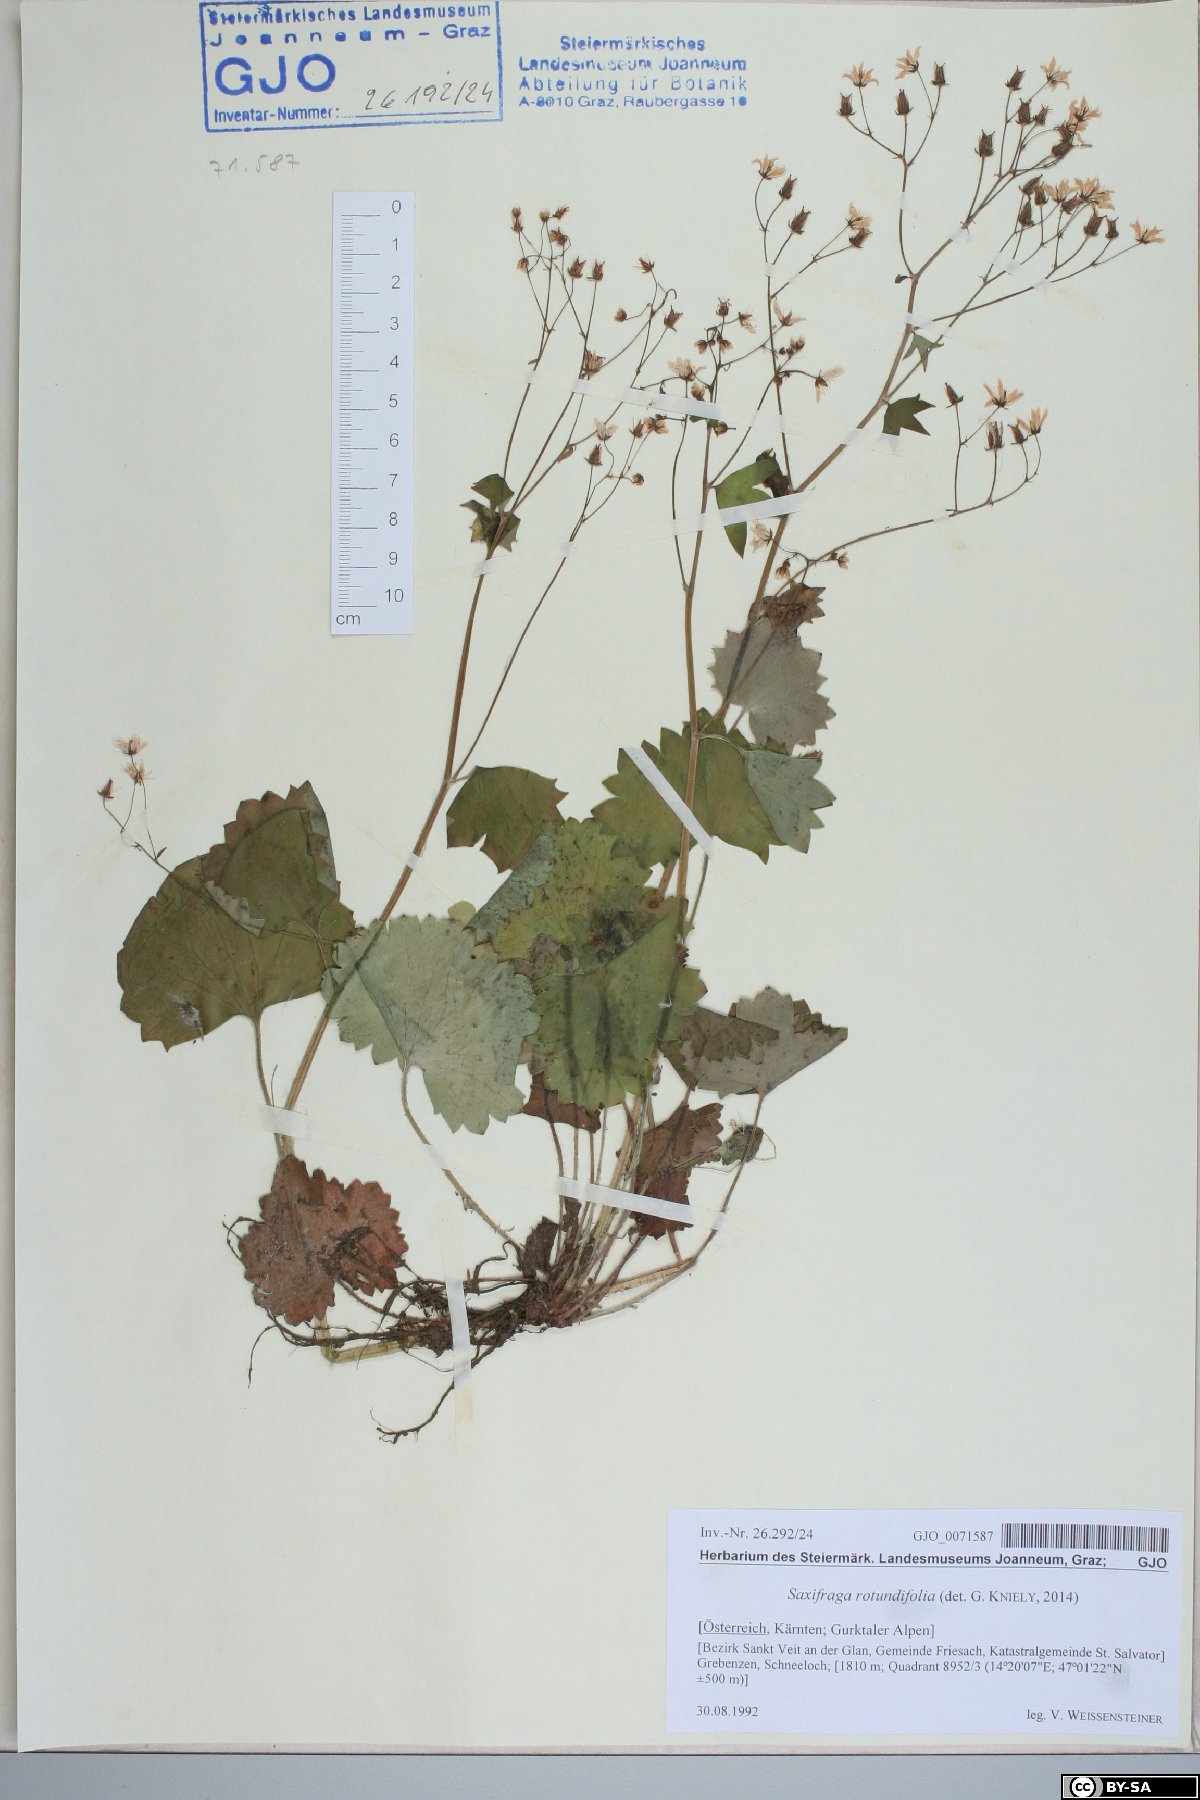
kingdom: Plantae
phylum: Tracheophyta
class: Magnoliopsida
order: Saxifragales
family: Saxifragaceae
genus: Saxifraga
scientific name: Saxifraga rotundifolia
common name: Round-leaved saxifrage
